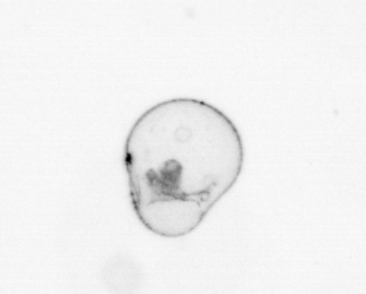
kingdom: Chromista
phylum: Myzozoa
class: Dinophyceae
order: Noctilucales
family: Noctilucaceae
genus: Noctiluca
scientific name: Noctiluca scintillans
